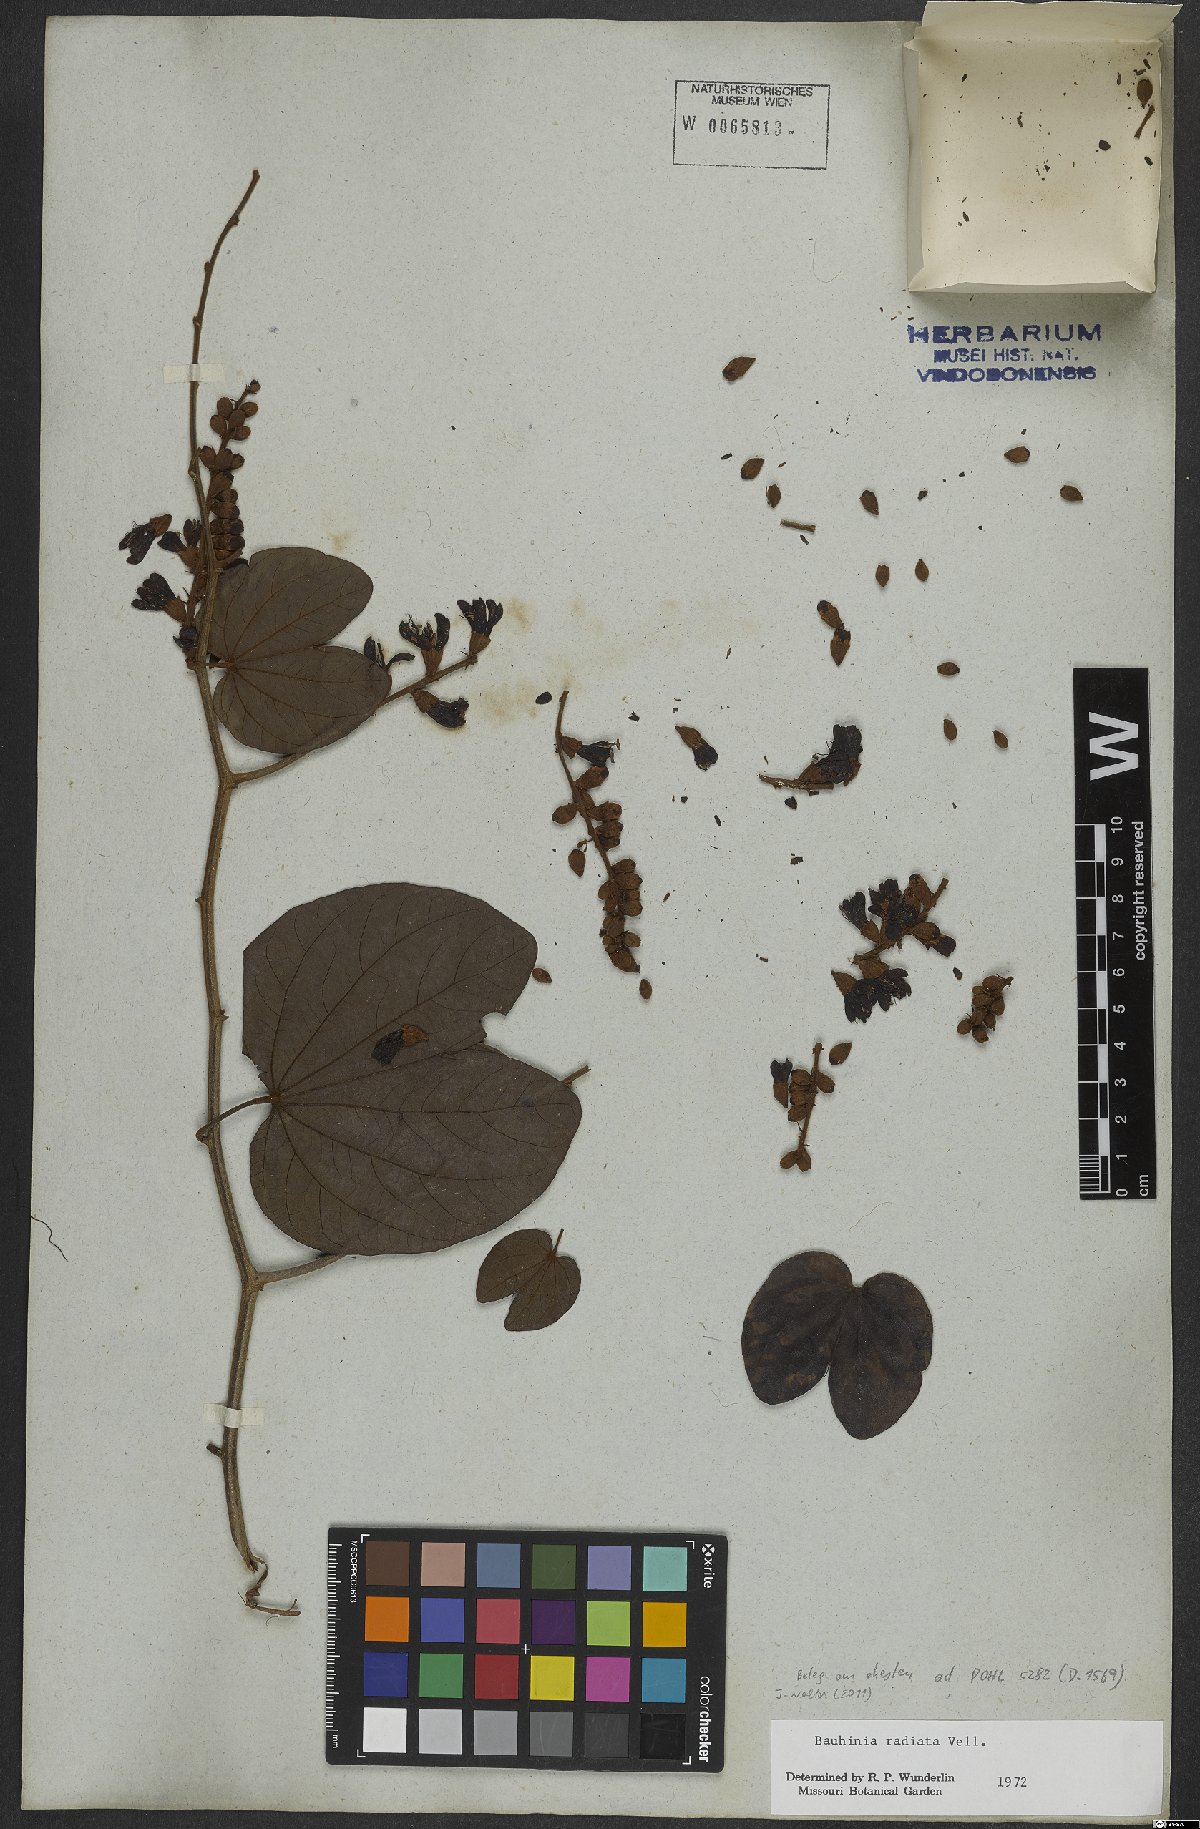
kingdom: Plantae
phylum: Tracheophyta
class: Magnoliopsida
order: Fabales
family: Fabaceae
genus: Schnella
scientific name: Schnella macrostachya
